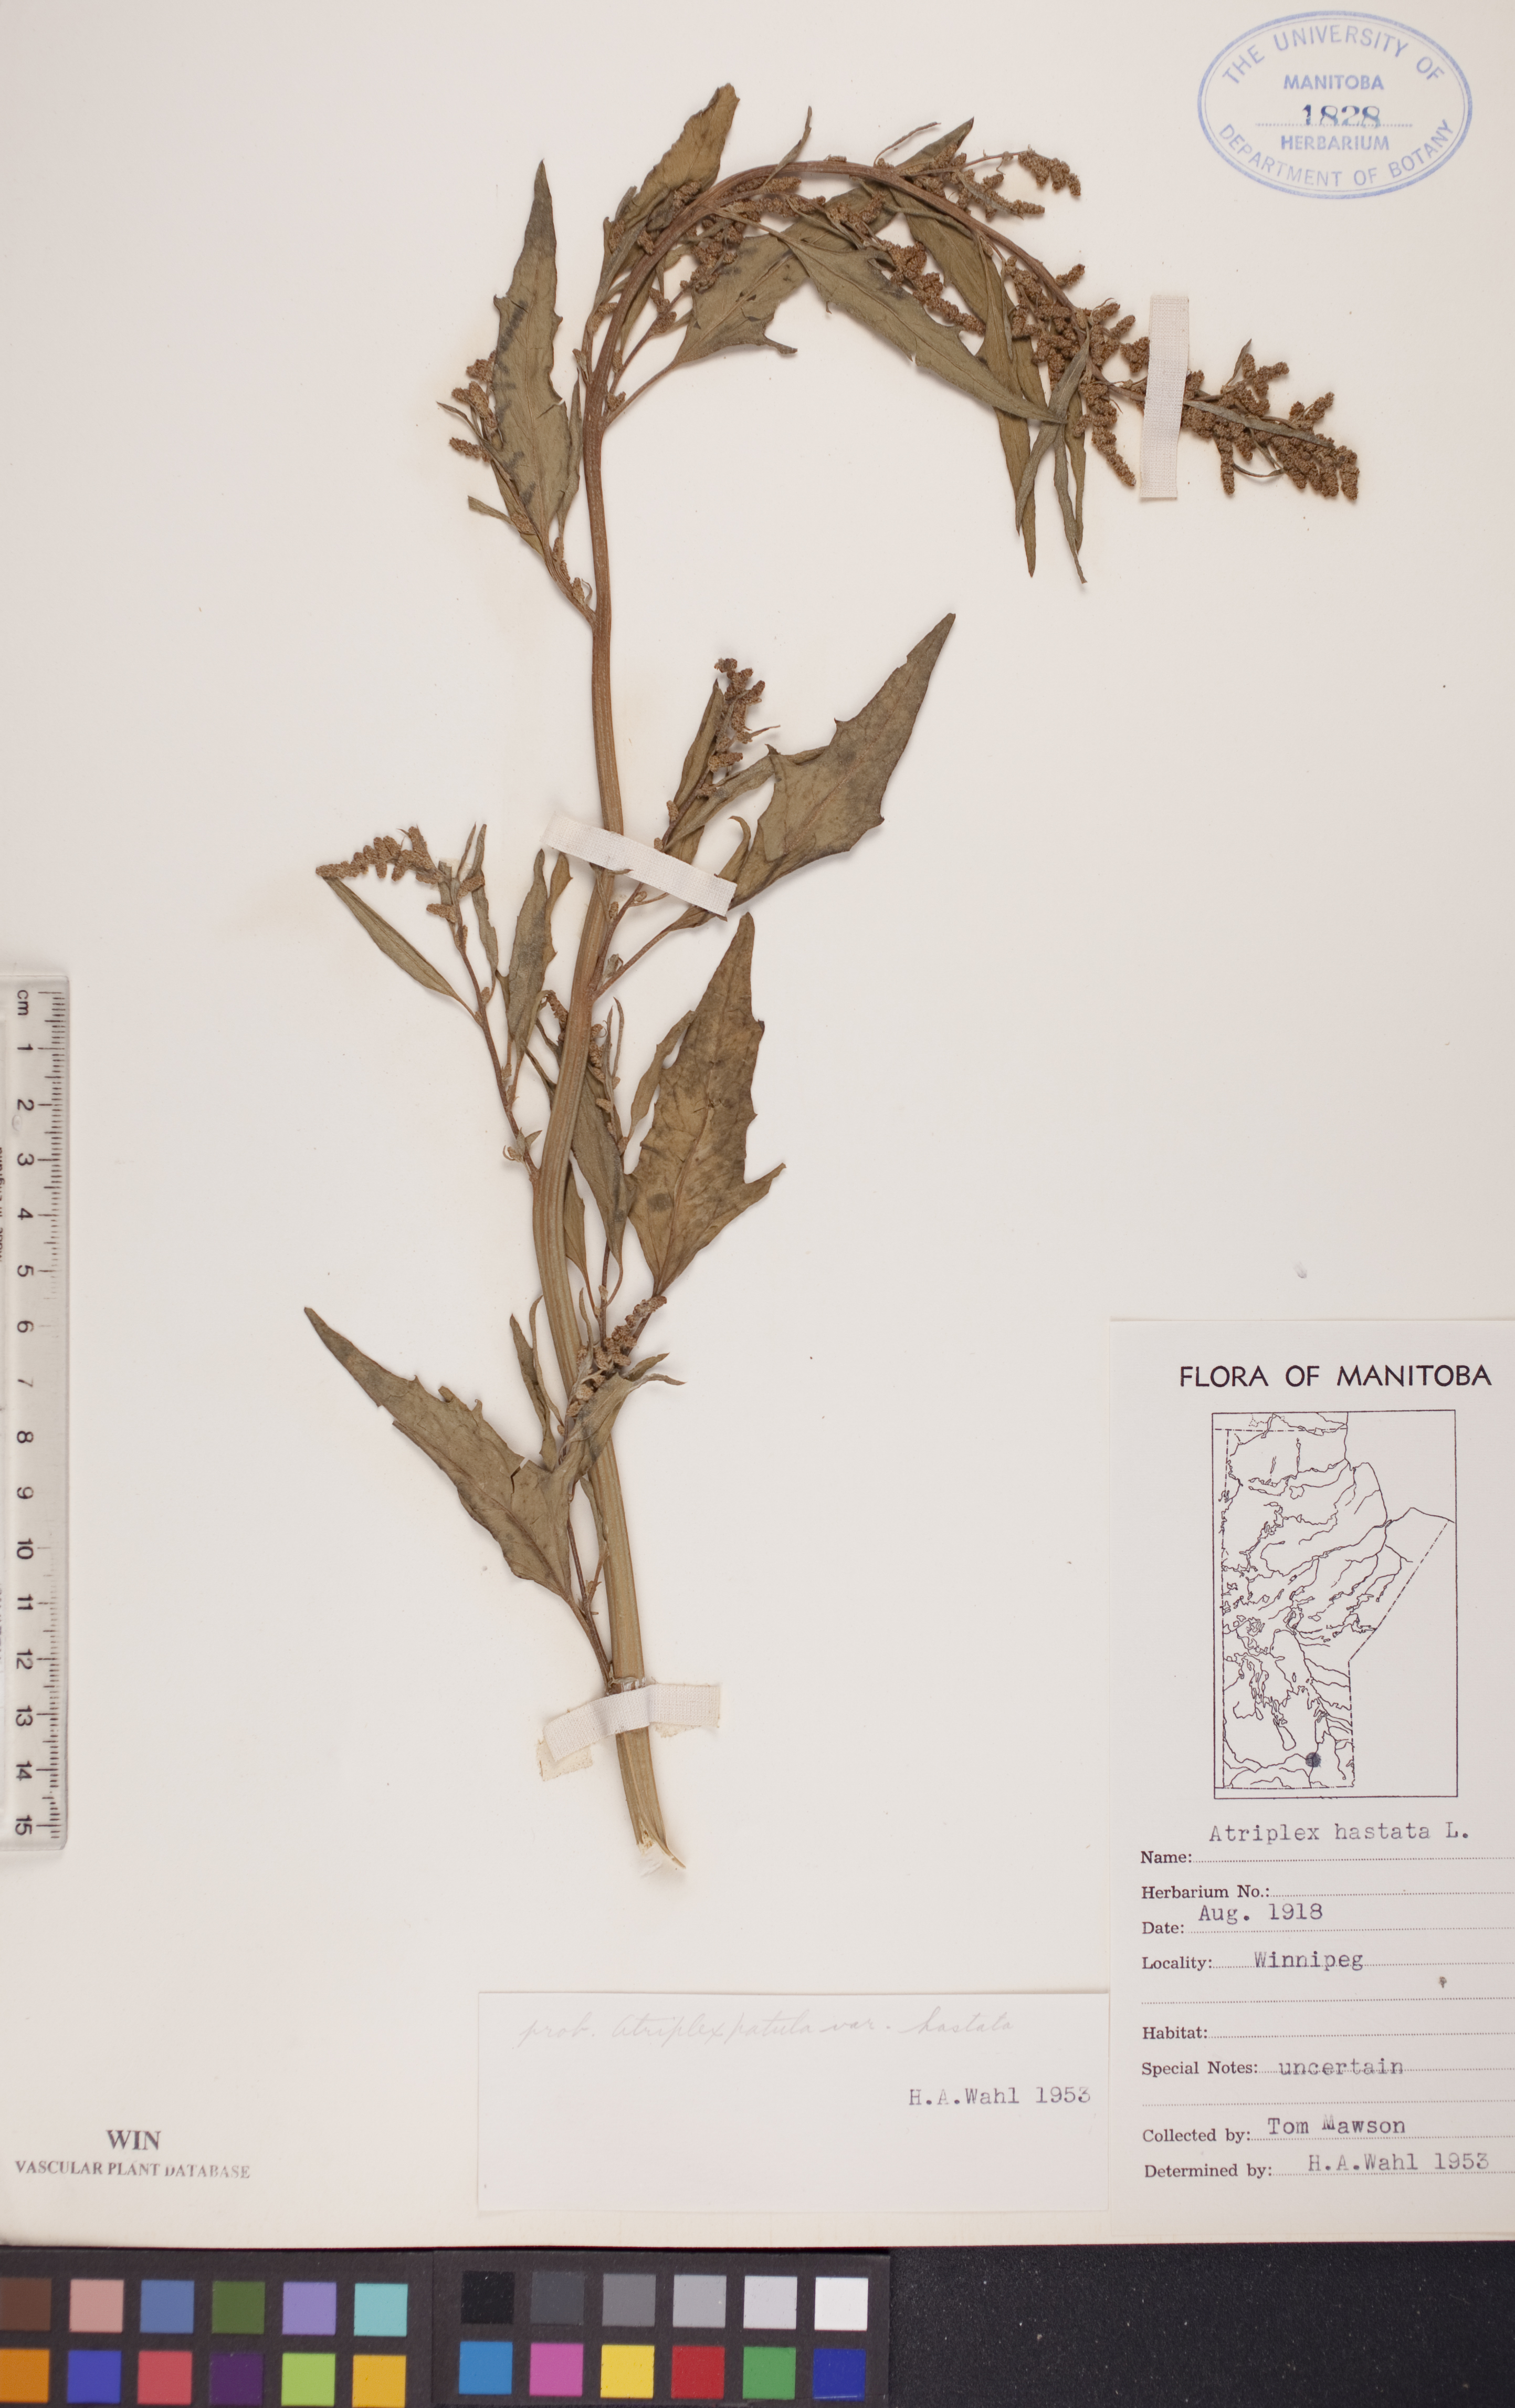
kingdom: Plantae
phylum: Tracheophyta
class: Magnoliopsida
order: Caryophyllales
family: Amaranthaceae
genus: Atriplex
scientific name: Atriplex
